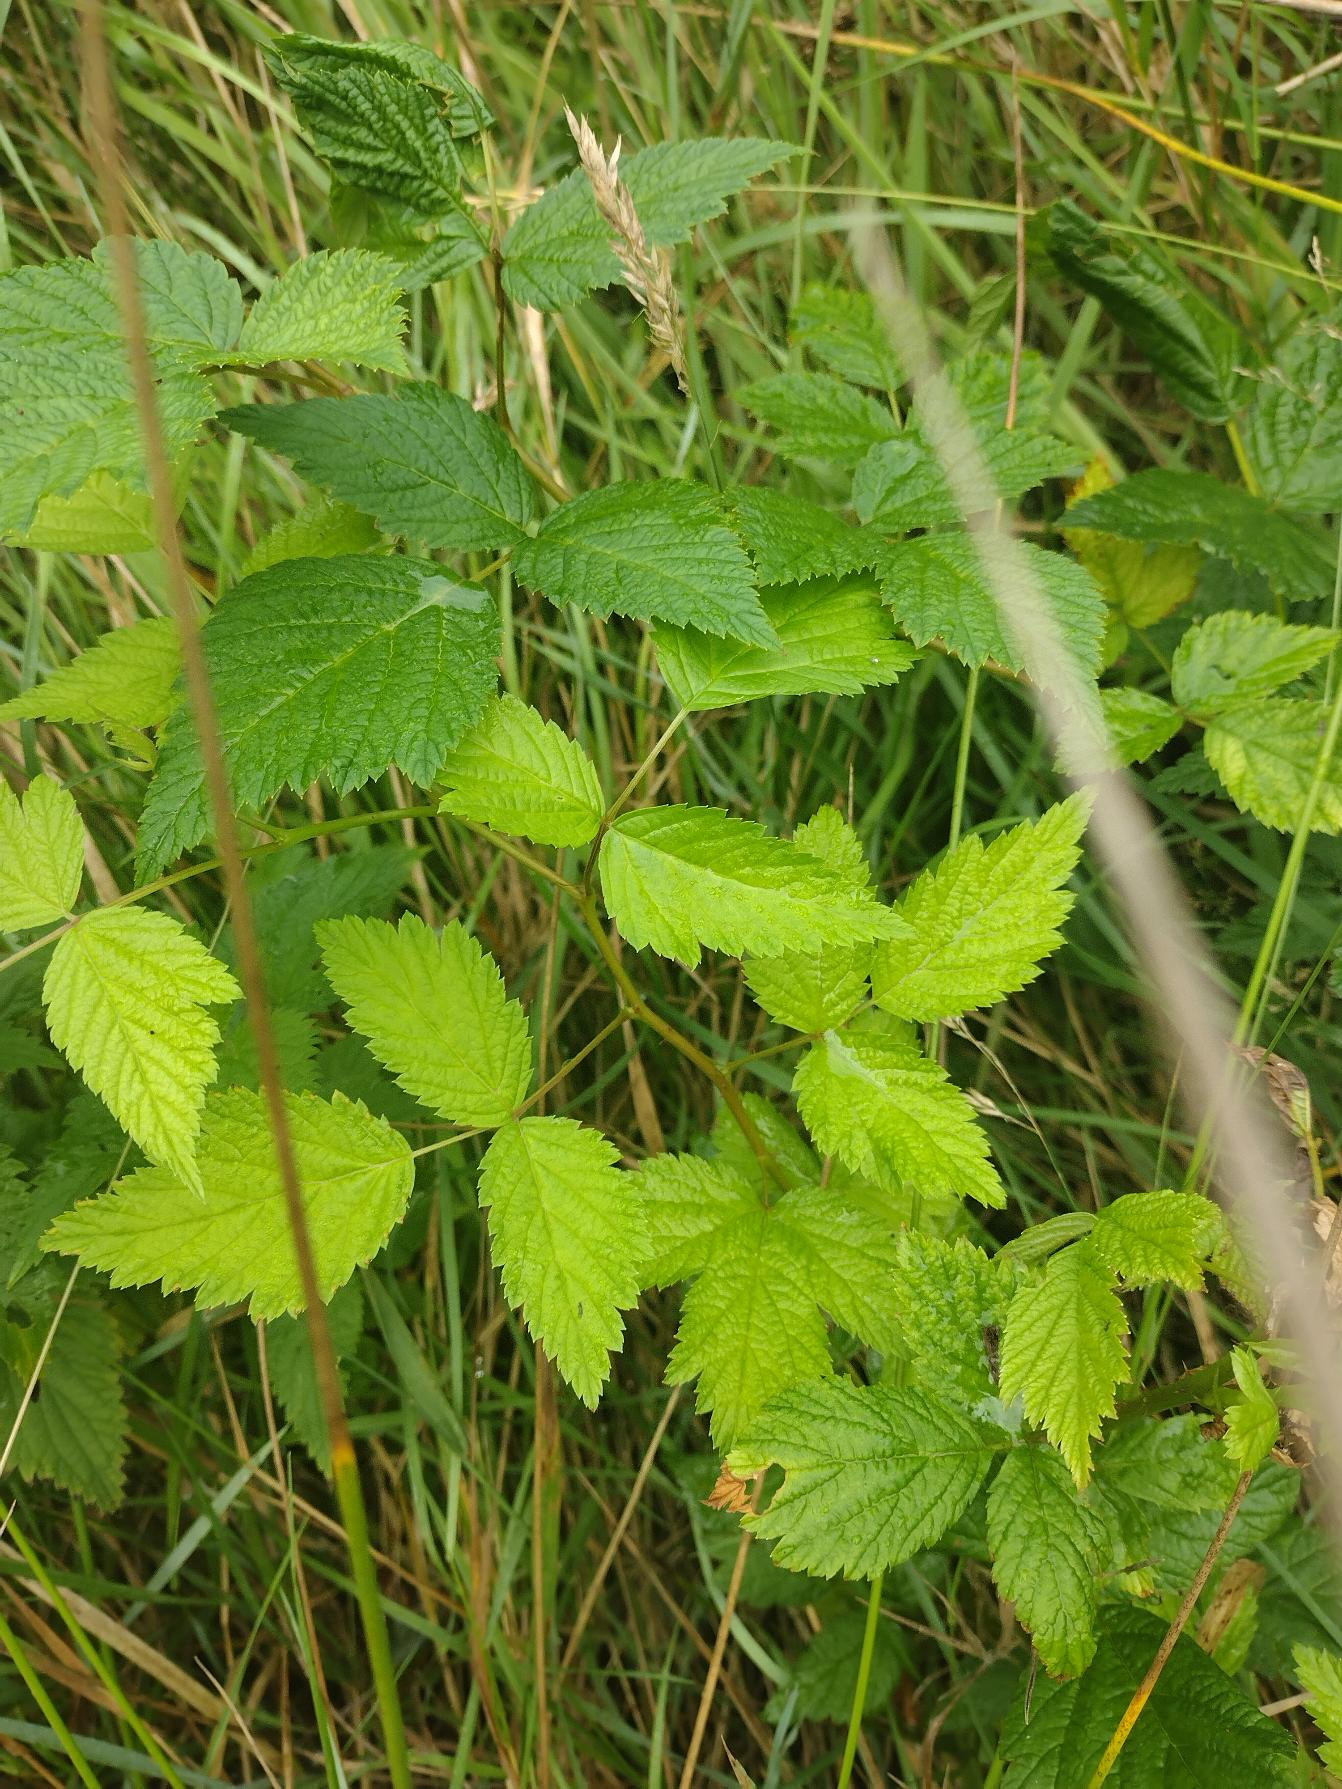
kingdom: Plantae
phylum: Tracheophyta
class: Magnoliopsida
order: Rosales
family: Rosaceae
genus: Rubus
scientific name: Rubus spectabilis
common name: Laksebær
